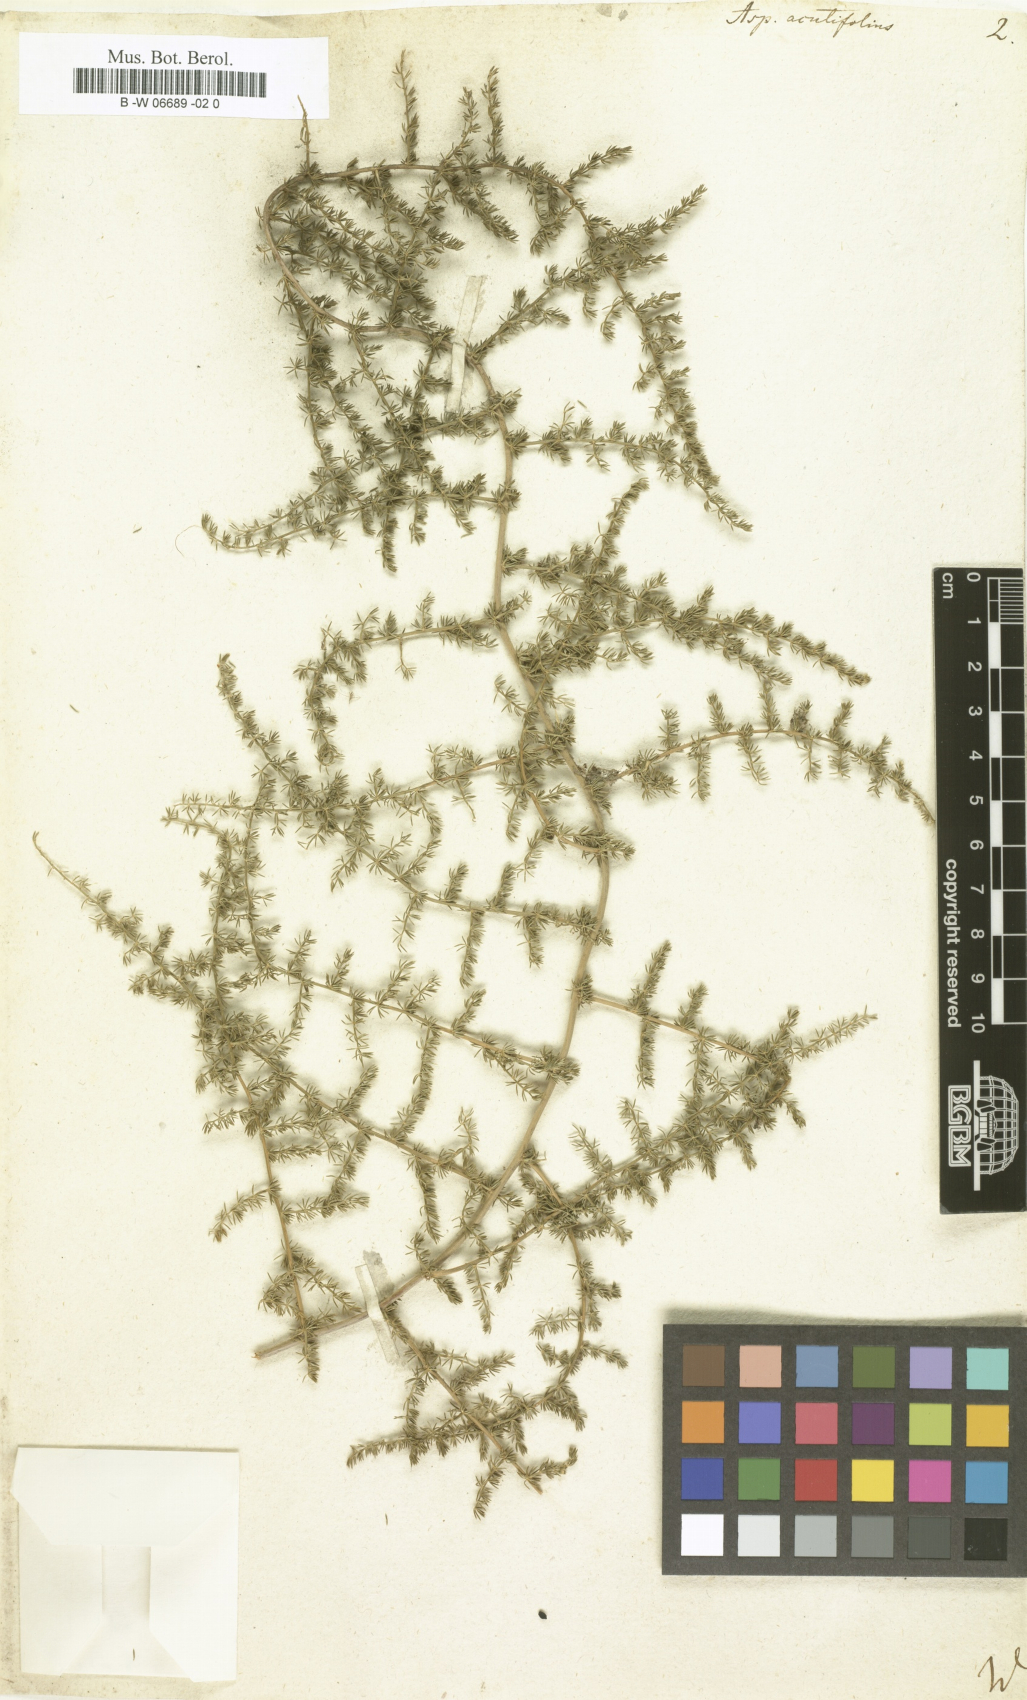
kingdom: Plantae
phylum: Tracheophyta
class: Liliopsida
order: Asparagales
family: Asparagaceae
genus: Asparagus
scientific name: Asparagus acutifolius
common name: Wild asparagus
